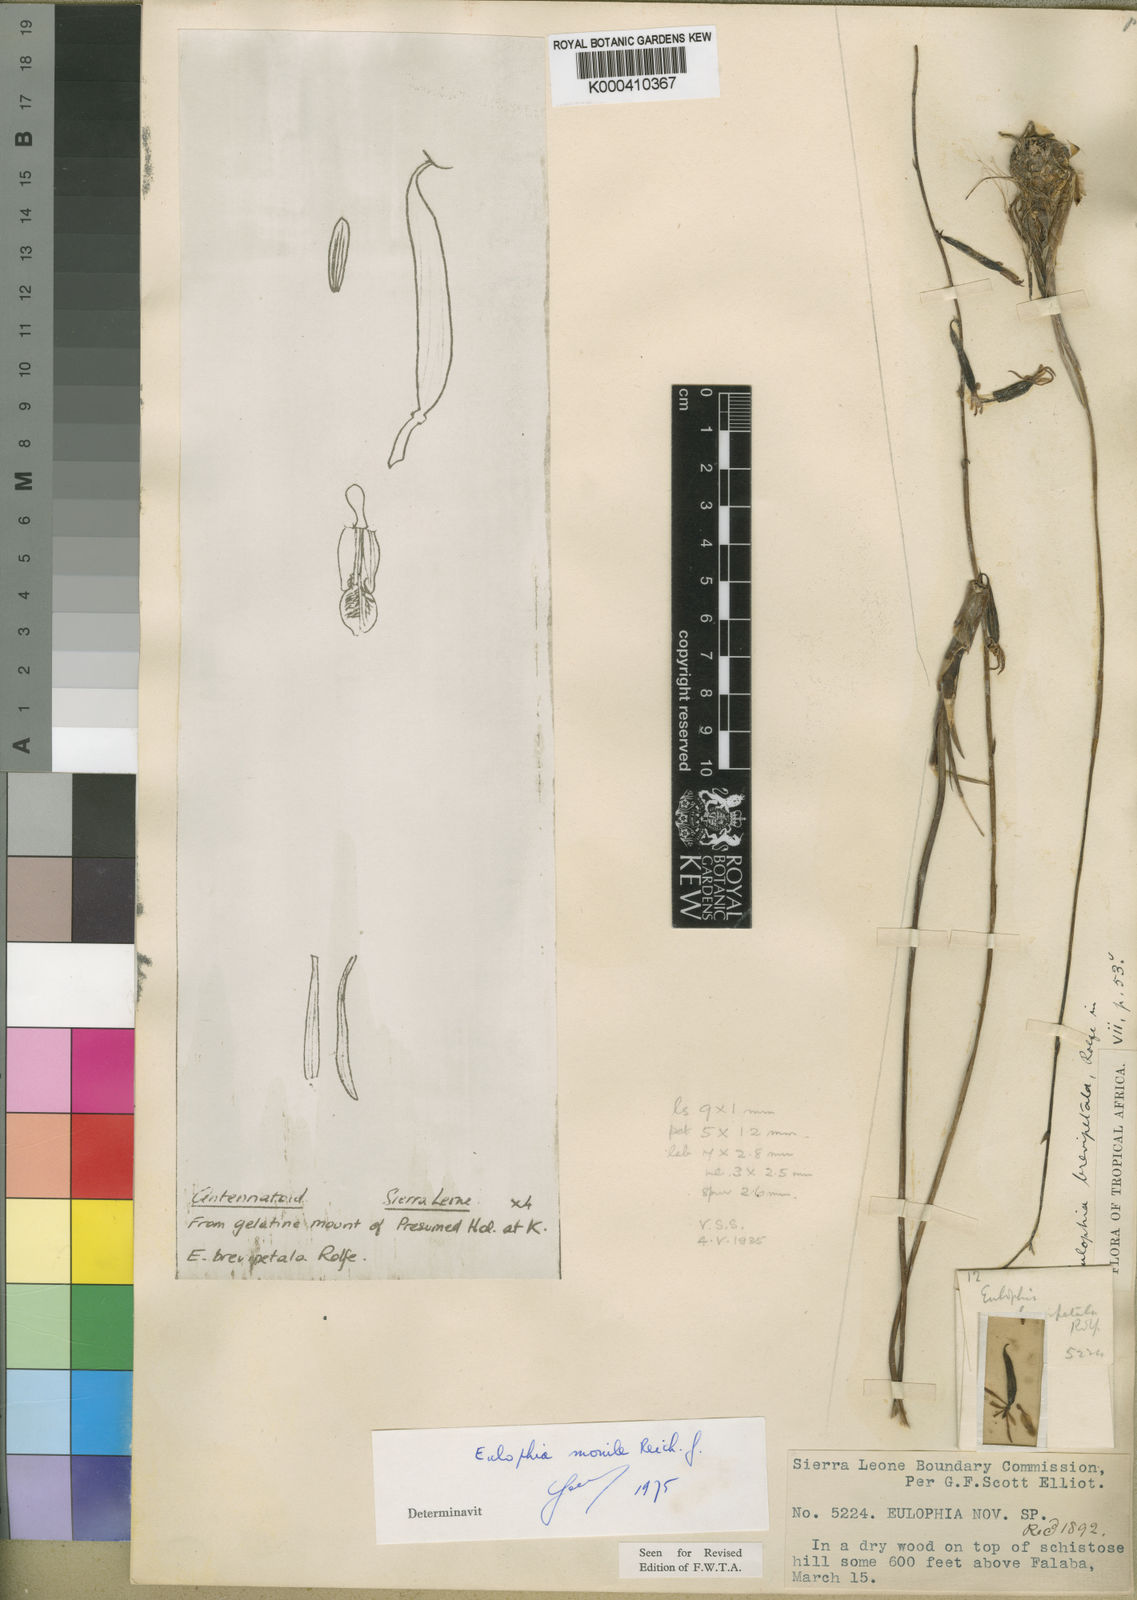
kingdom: Plantae
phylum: Tracheophyta
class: Liliopsida
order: Asparagales
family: Orchidaceae
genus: Eulophia
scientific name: Eulophia monile
